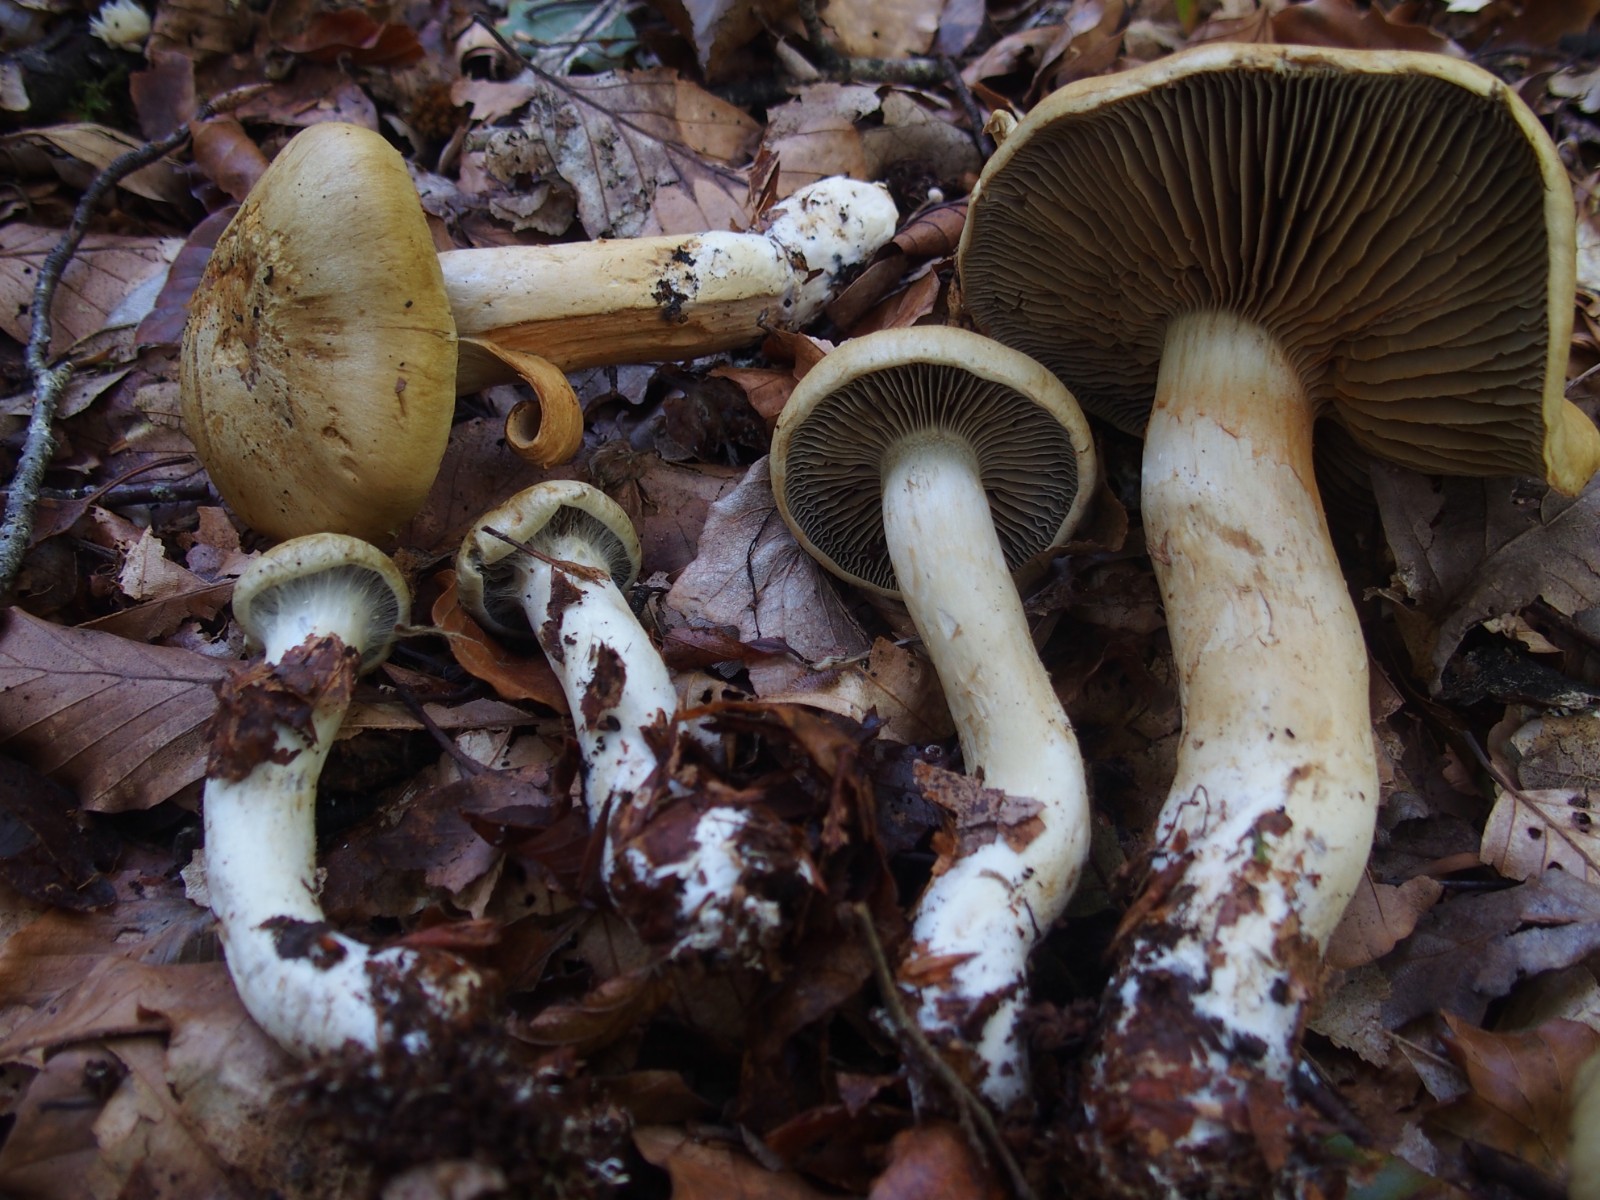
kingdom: Fungi
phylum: Basidiomycota
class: Agaricomycetes
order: Agaricales
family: Cortinariaceae
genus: Cortinarius
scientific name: Cortinarius subtortus
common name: olivengul slørhat
